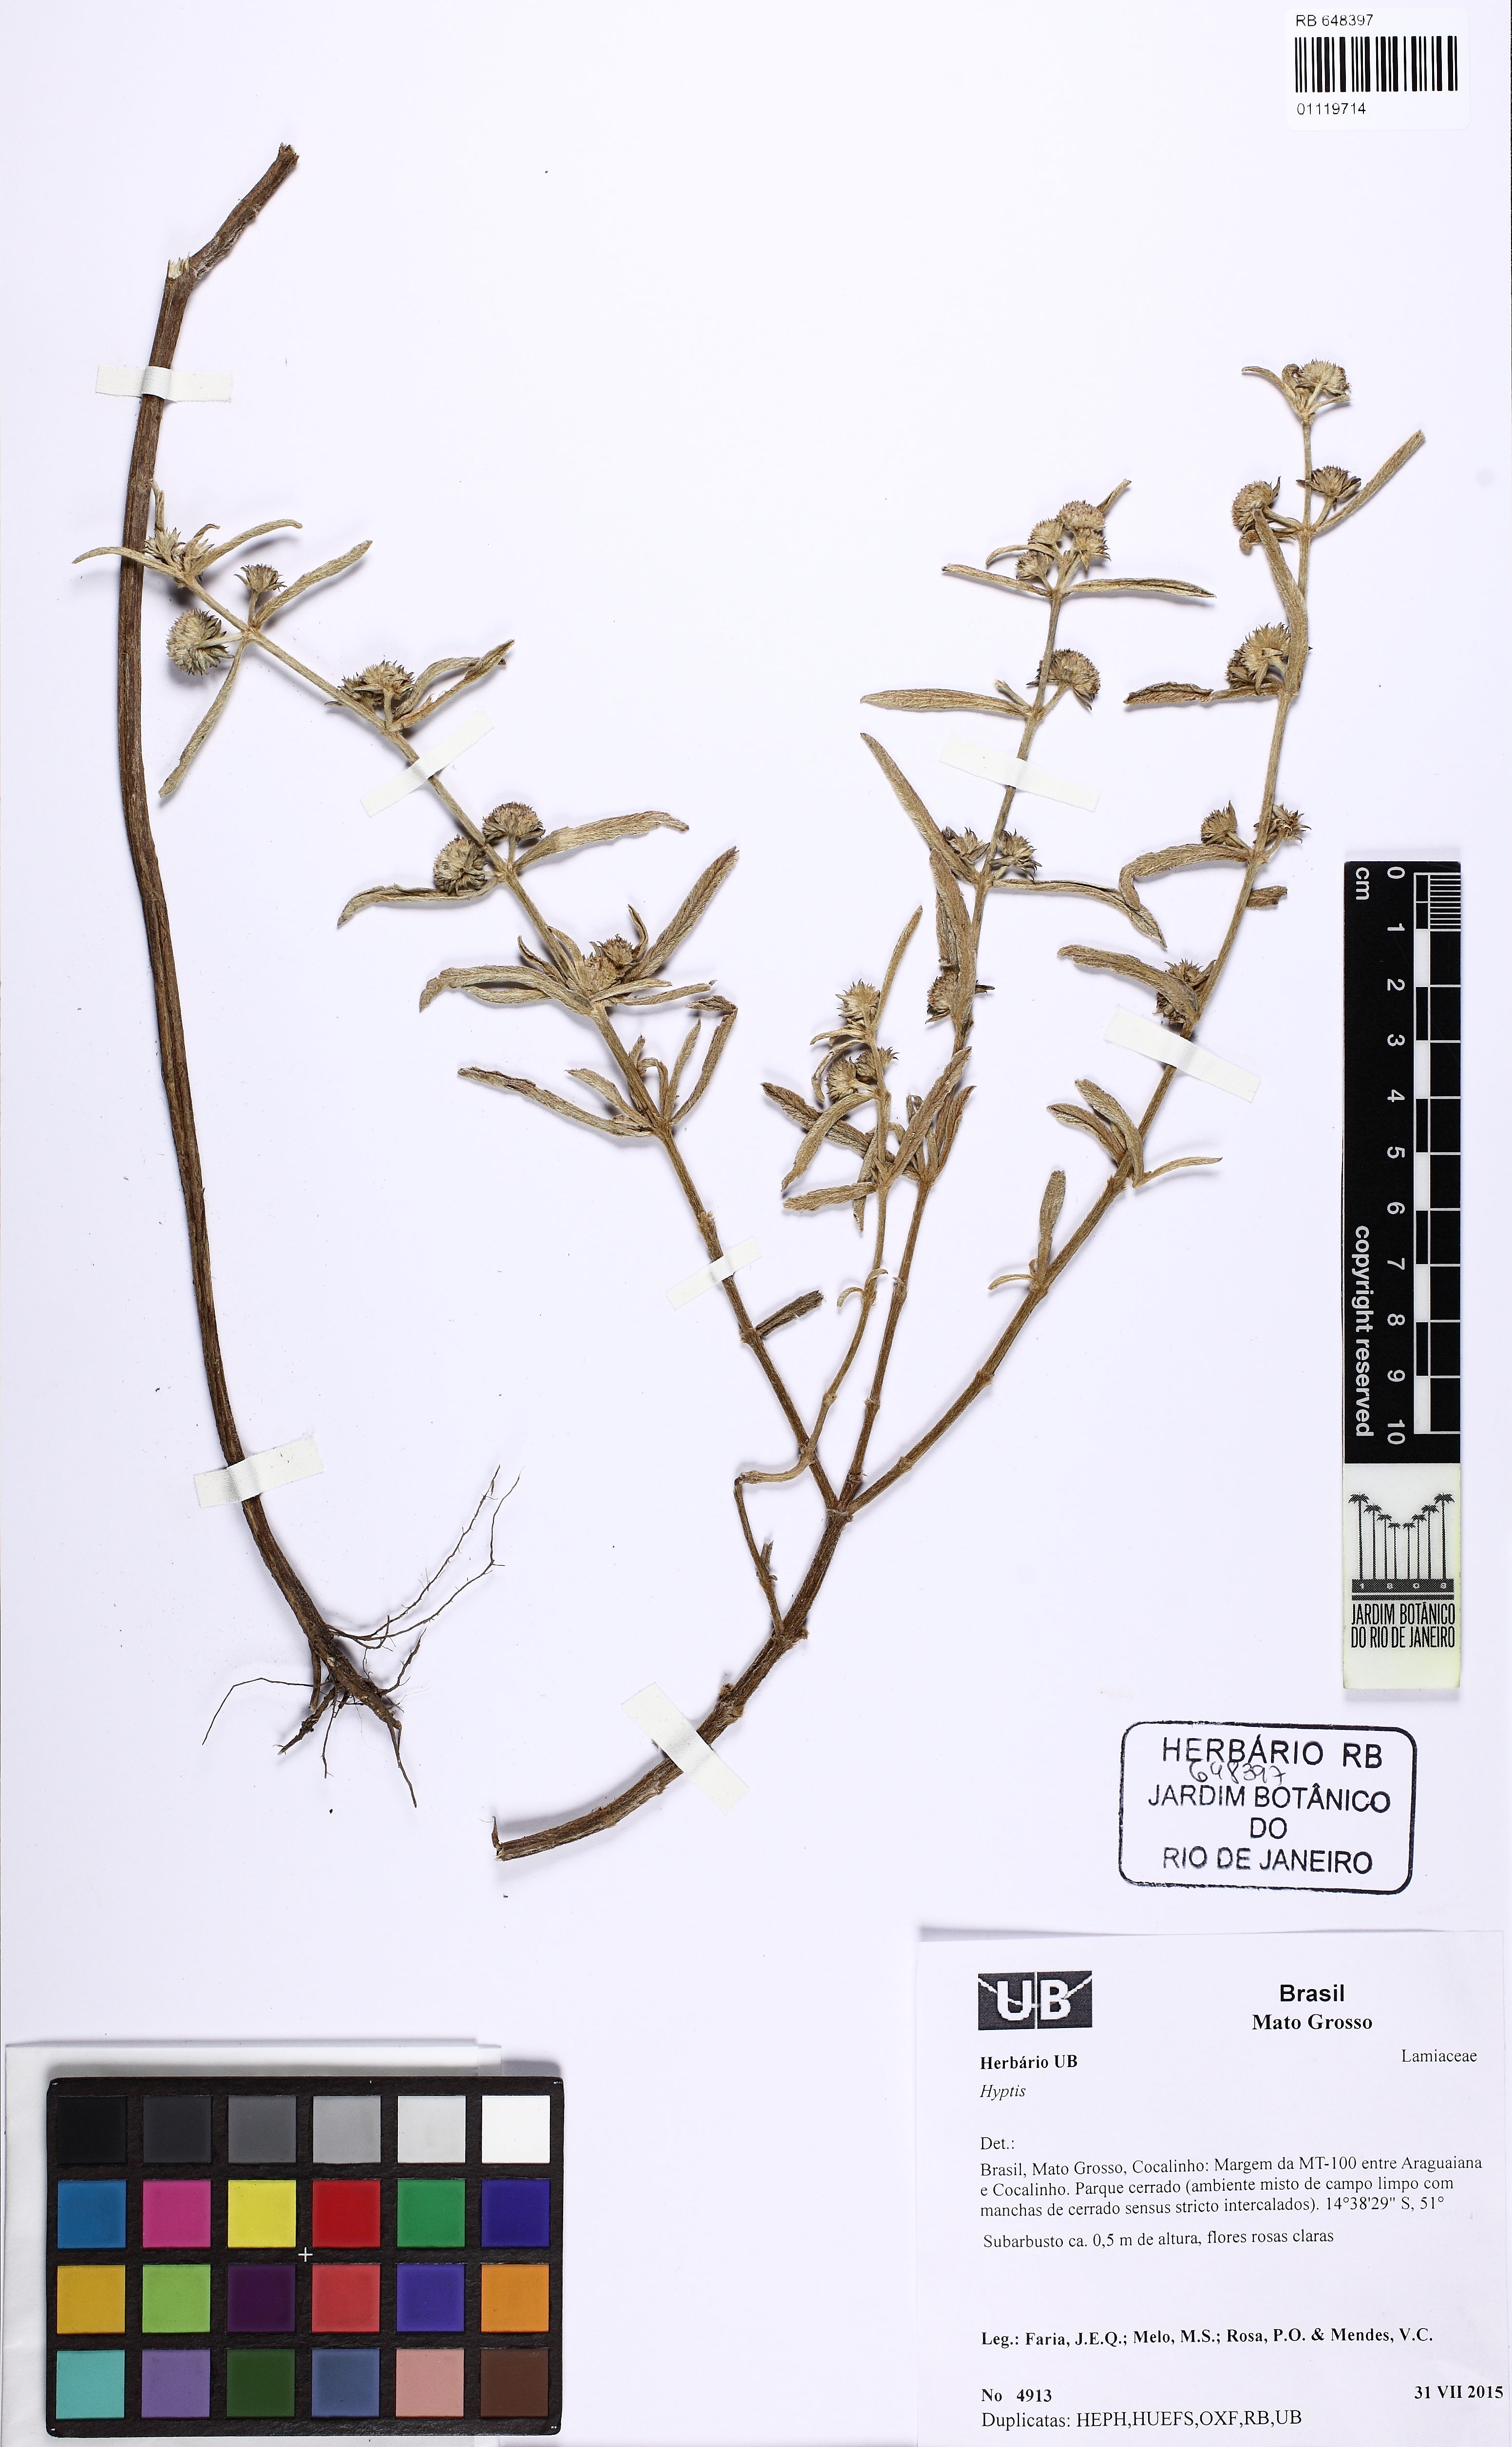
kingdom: Plantae
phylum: Tracheophyta
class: Magnoliopsida
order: Lamiales
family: Lamiaceae
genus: Hyptis
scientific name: Hyptis velutina
